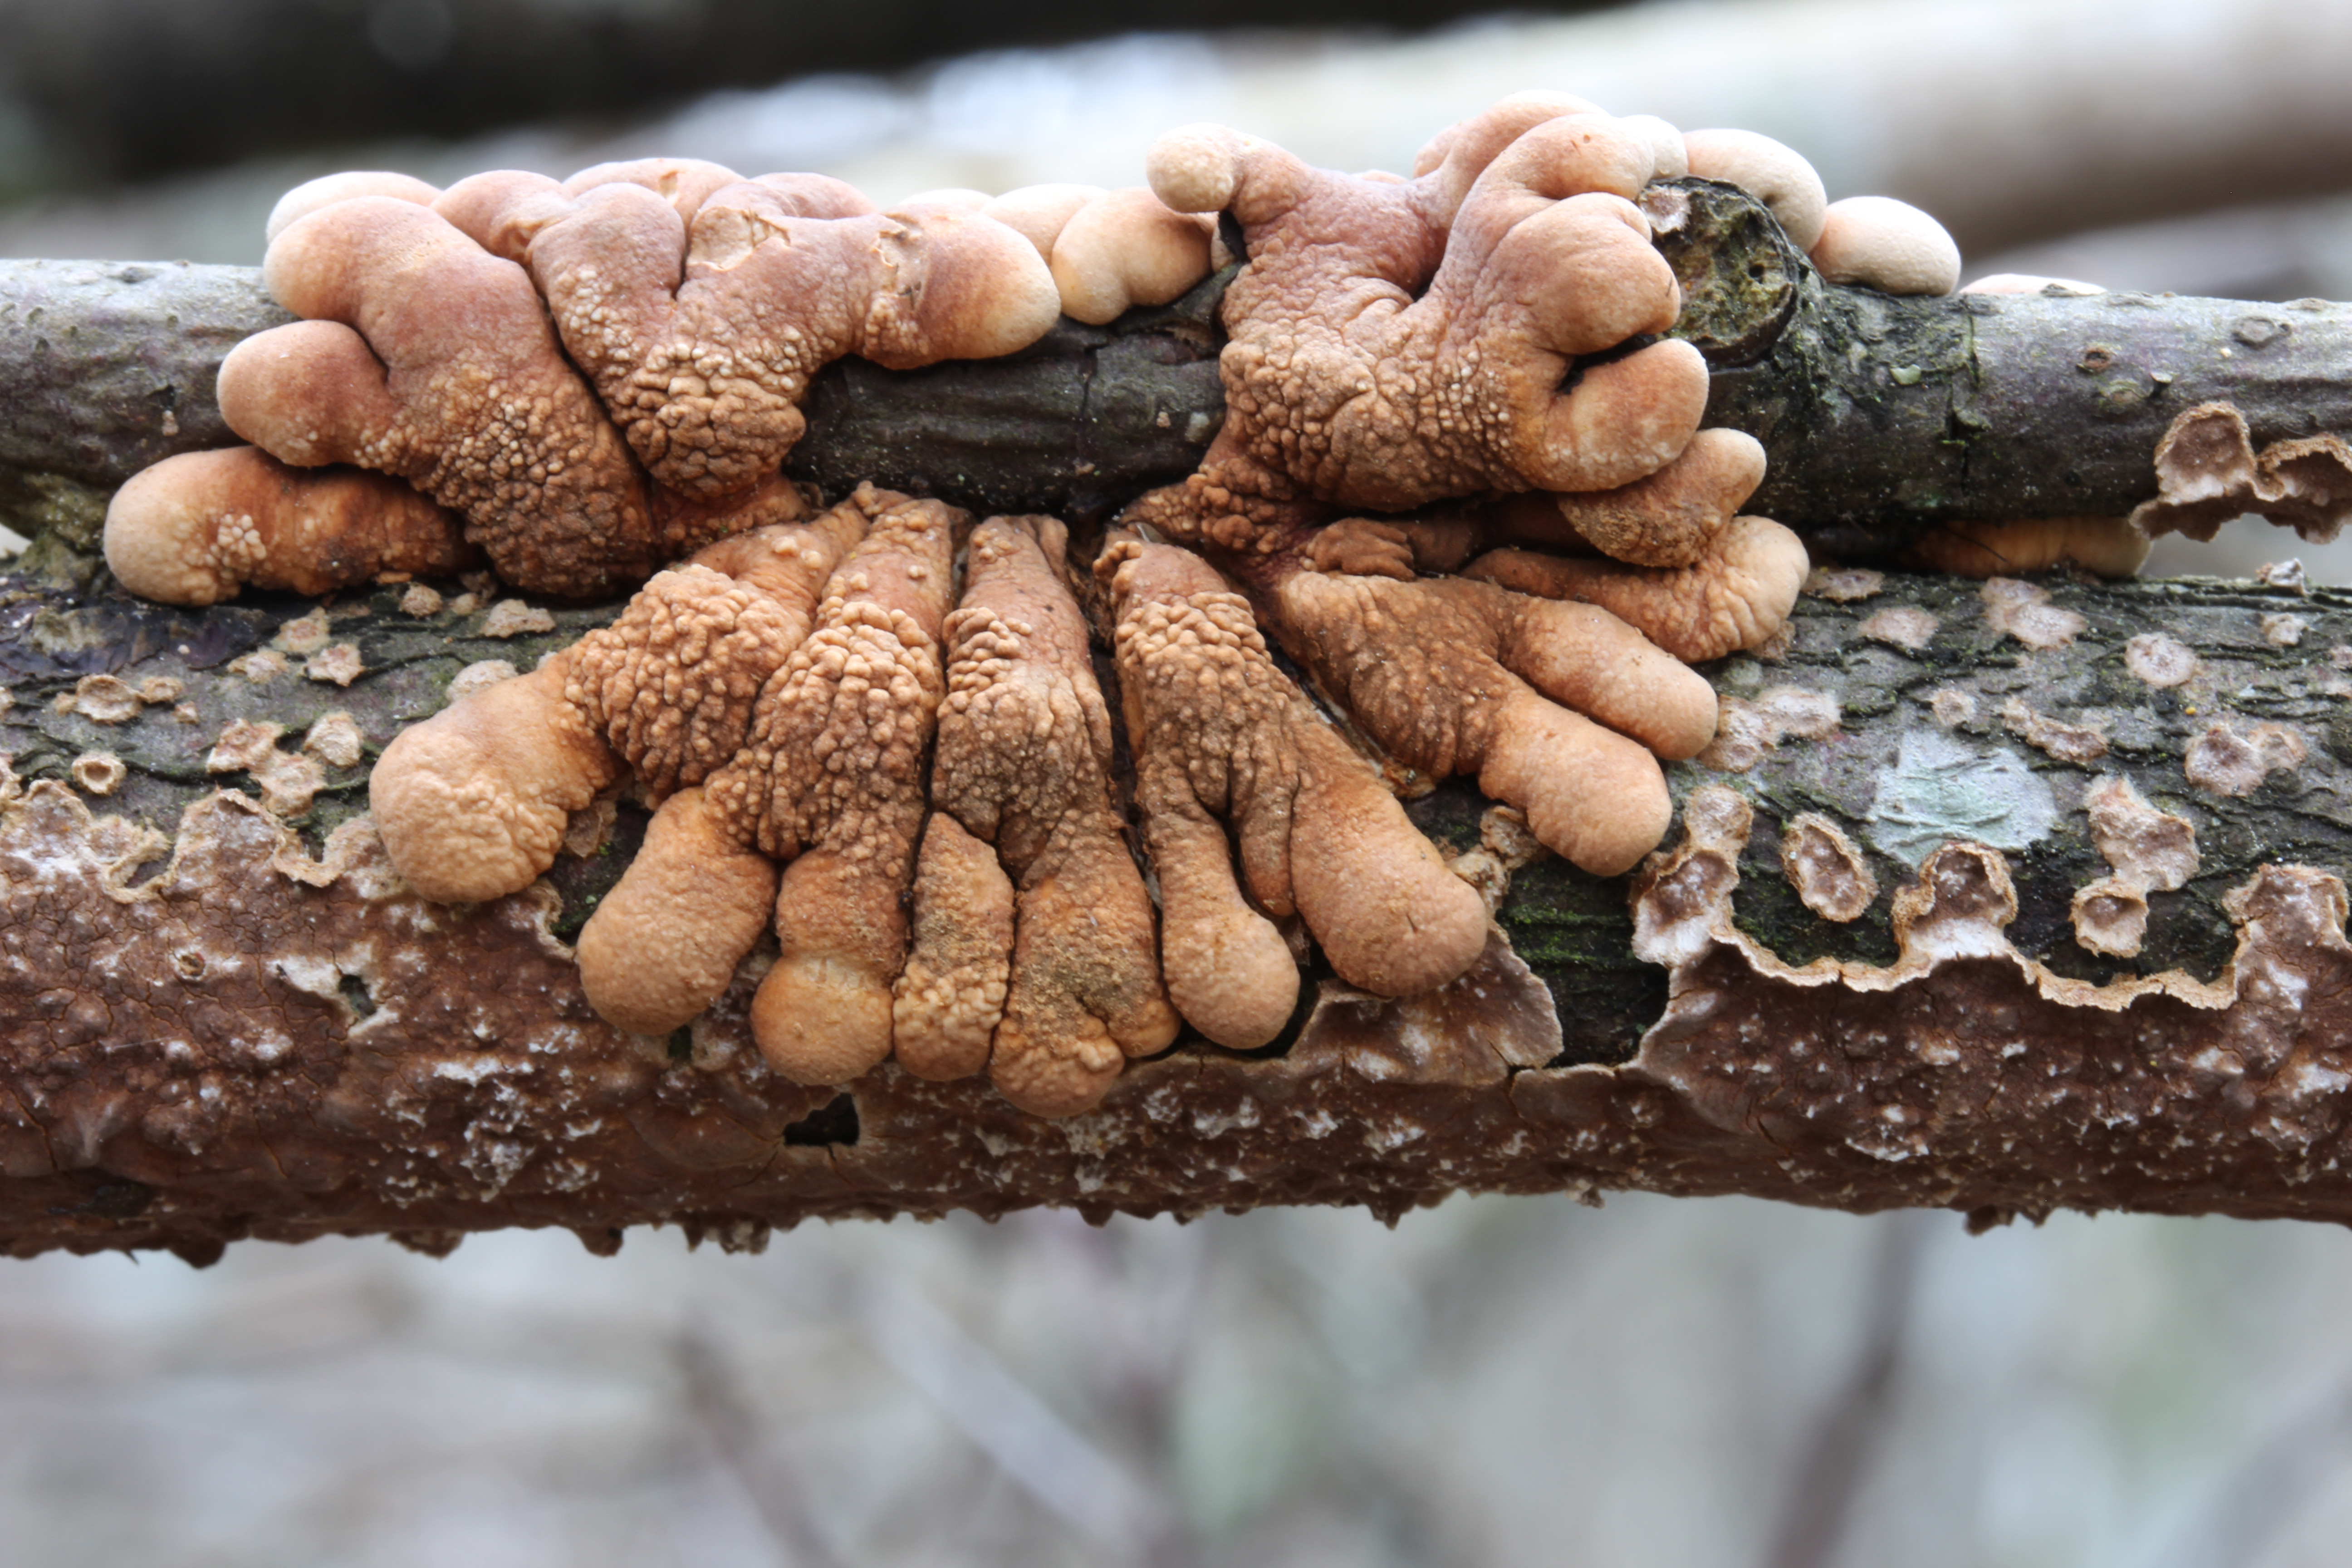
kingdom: Fungi
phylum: Ascomycota
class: Sordariomycetes
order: Hypocreales
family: Hypocreaceae
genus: Hypocreopsis
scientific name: Hypocreopsis lichenoides
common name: Willow gloves
